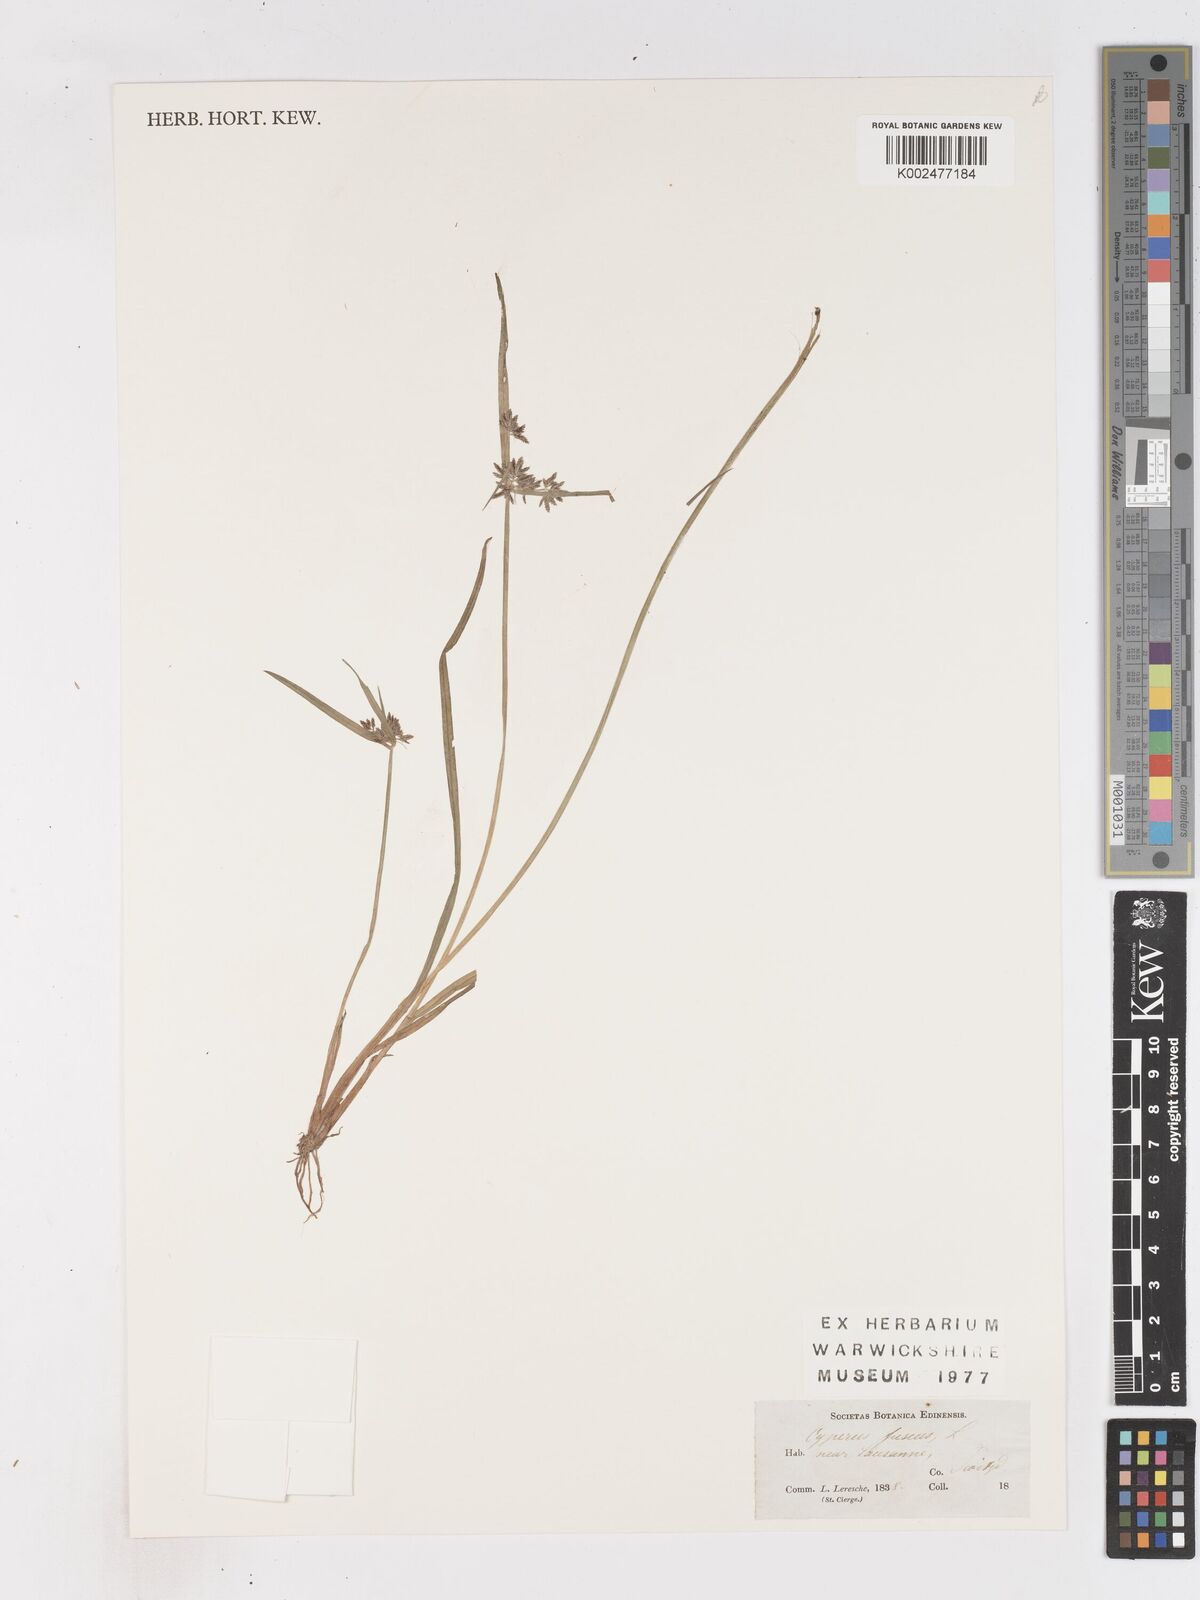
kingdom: Plantae
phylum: Tracheophyta
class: Liliopsida
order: Poales
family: Cyperaceae
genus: Cyperus
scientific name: Cyperus fuscus
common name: Brown galingale
